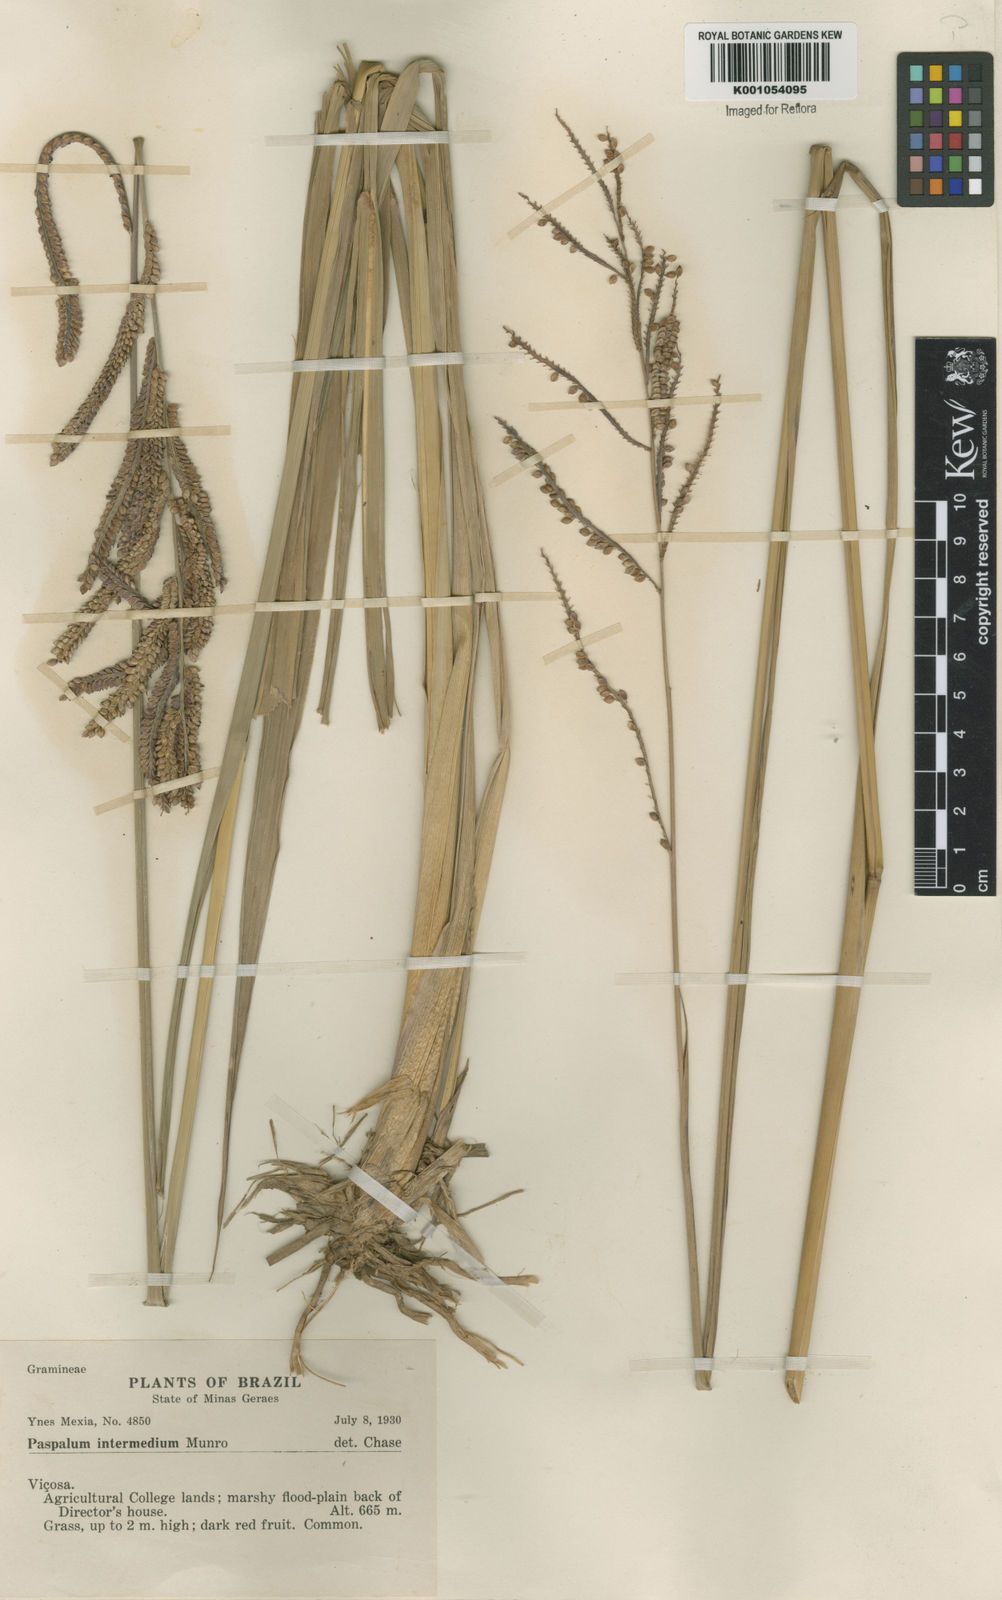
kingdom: Plantae
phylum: Tracheophyta
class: Liliopsida
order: Poales
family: Poaceae
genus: Paspalum
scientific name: Paspalum intermedium
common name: Intermediate paspalum
